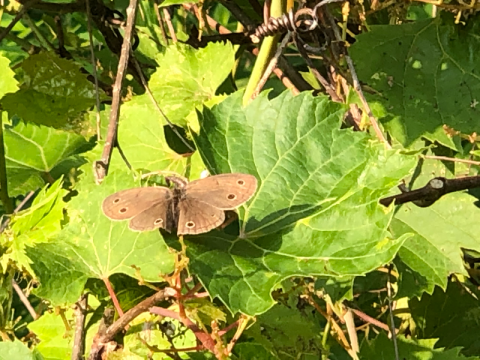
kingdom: Animalia
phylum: Arthropoda
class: Insecta
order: Lepidoptera
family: Nymphalidae
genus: Euptychia
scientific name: Euptychia cymela
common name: Little Wood Satyr
